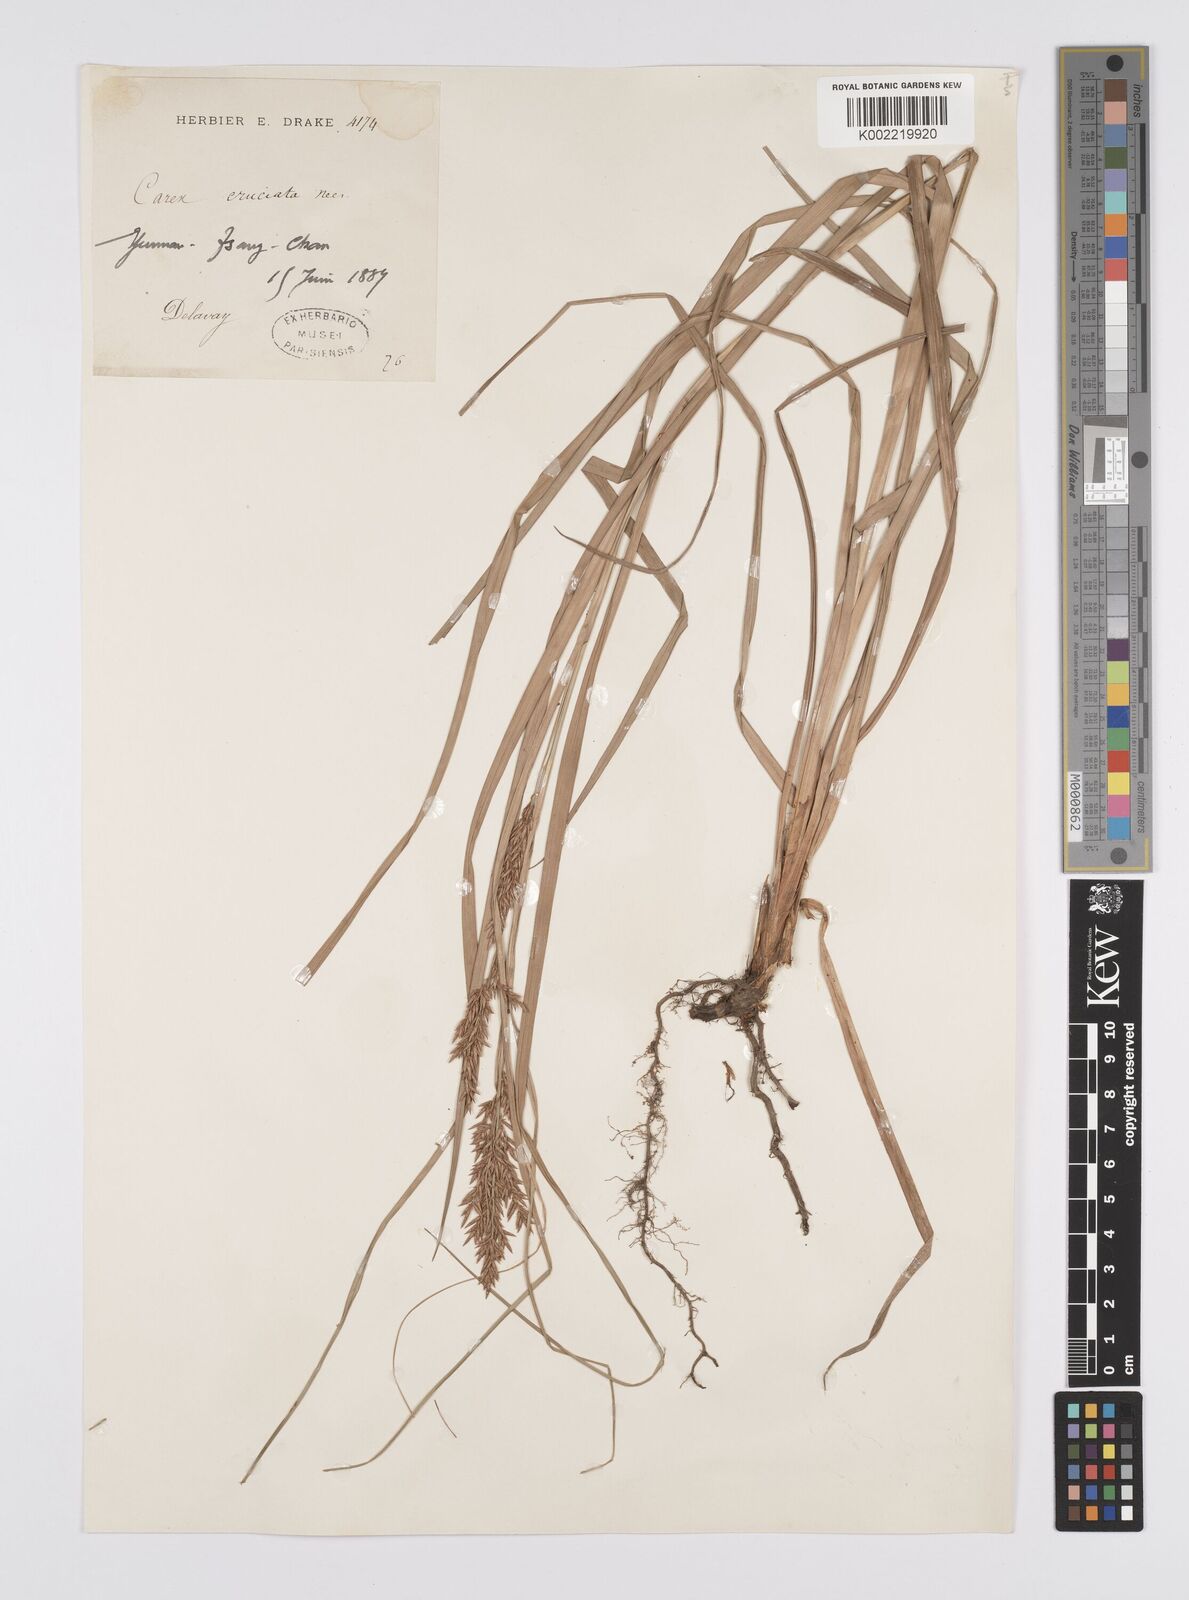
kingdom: Plantae
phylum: Tracheophyta
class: Liliopsida
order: Poales
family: Cyperaceae
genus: Carex
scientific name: Carex cruciata
